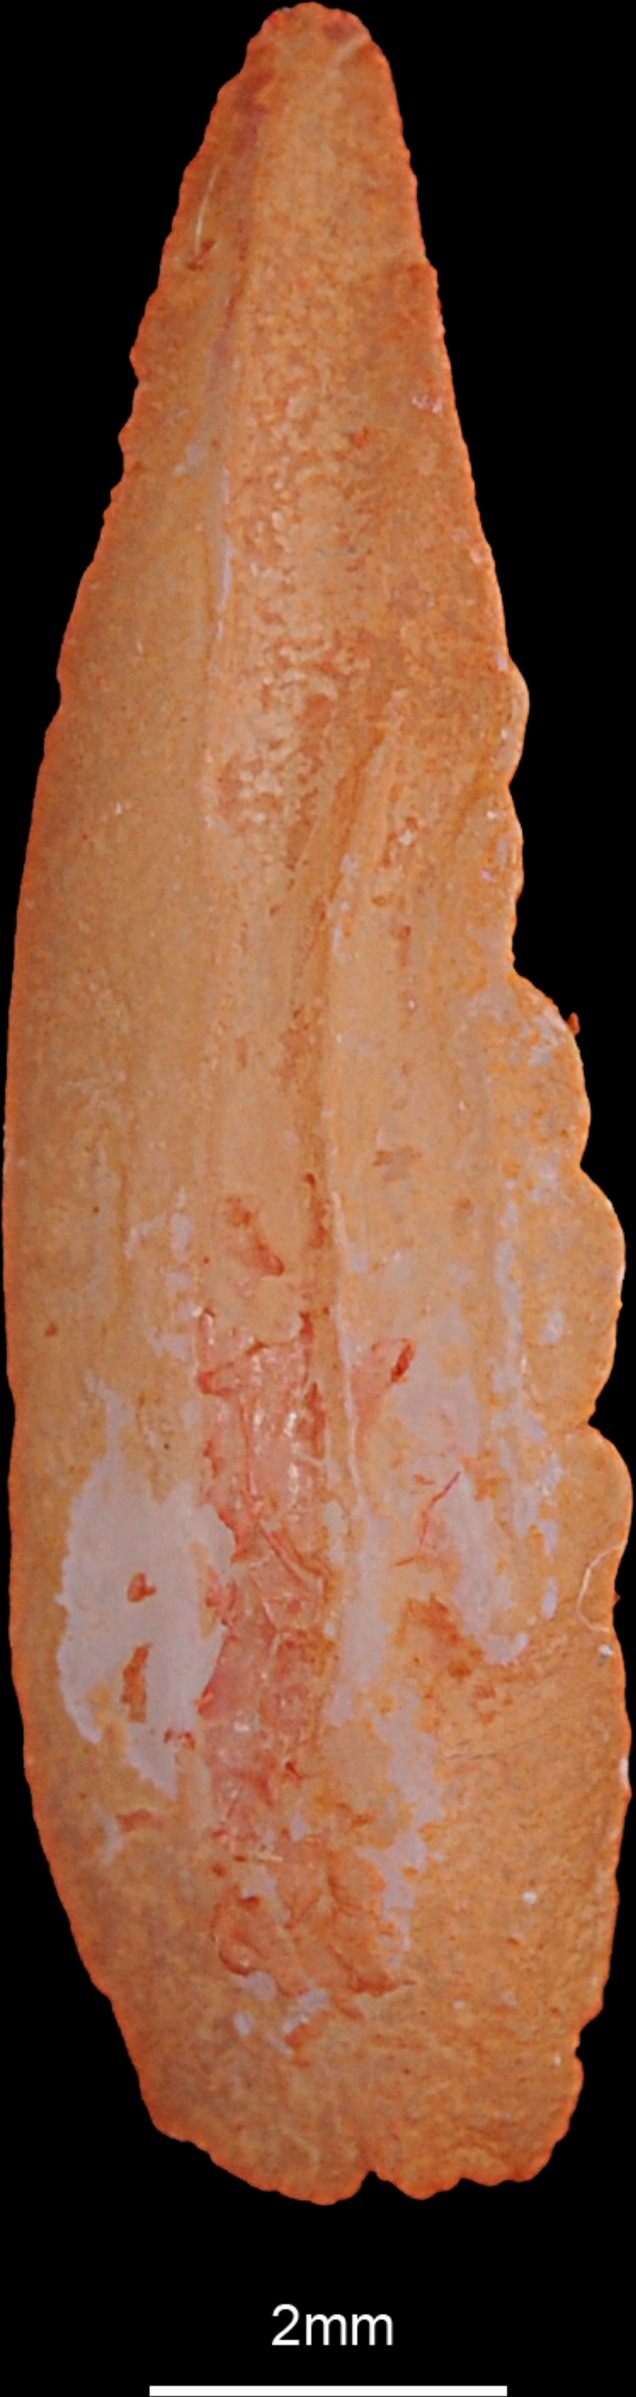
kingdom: Animalia
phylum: Chordata
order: Aulopiformes
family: Synodontidae
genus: Saurida
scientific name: Saurida tumbil
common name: Greater lizardfish
